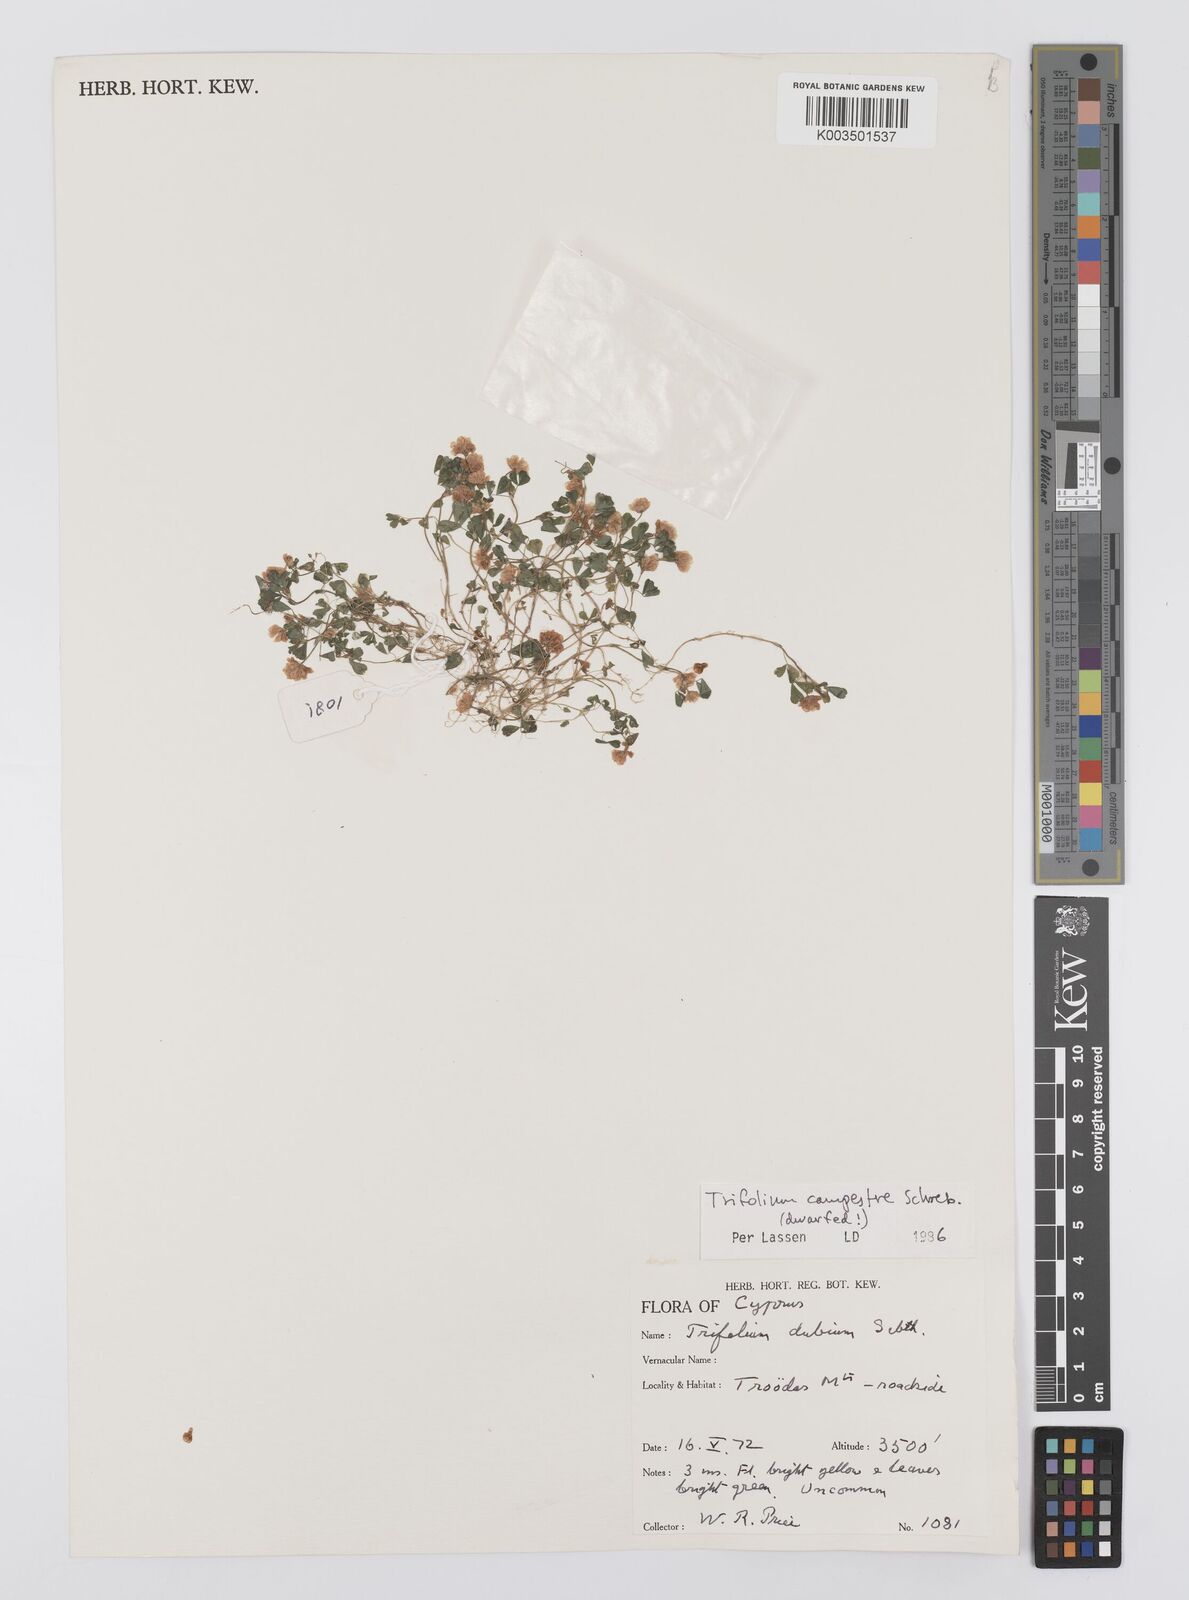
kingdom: Plantae
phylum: Tracheophyta
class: Magnoliopsida
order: Fabales
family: Fabaceae
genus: Trifolium
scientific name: Trifolium campestre
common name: Field clover
